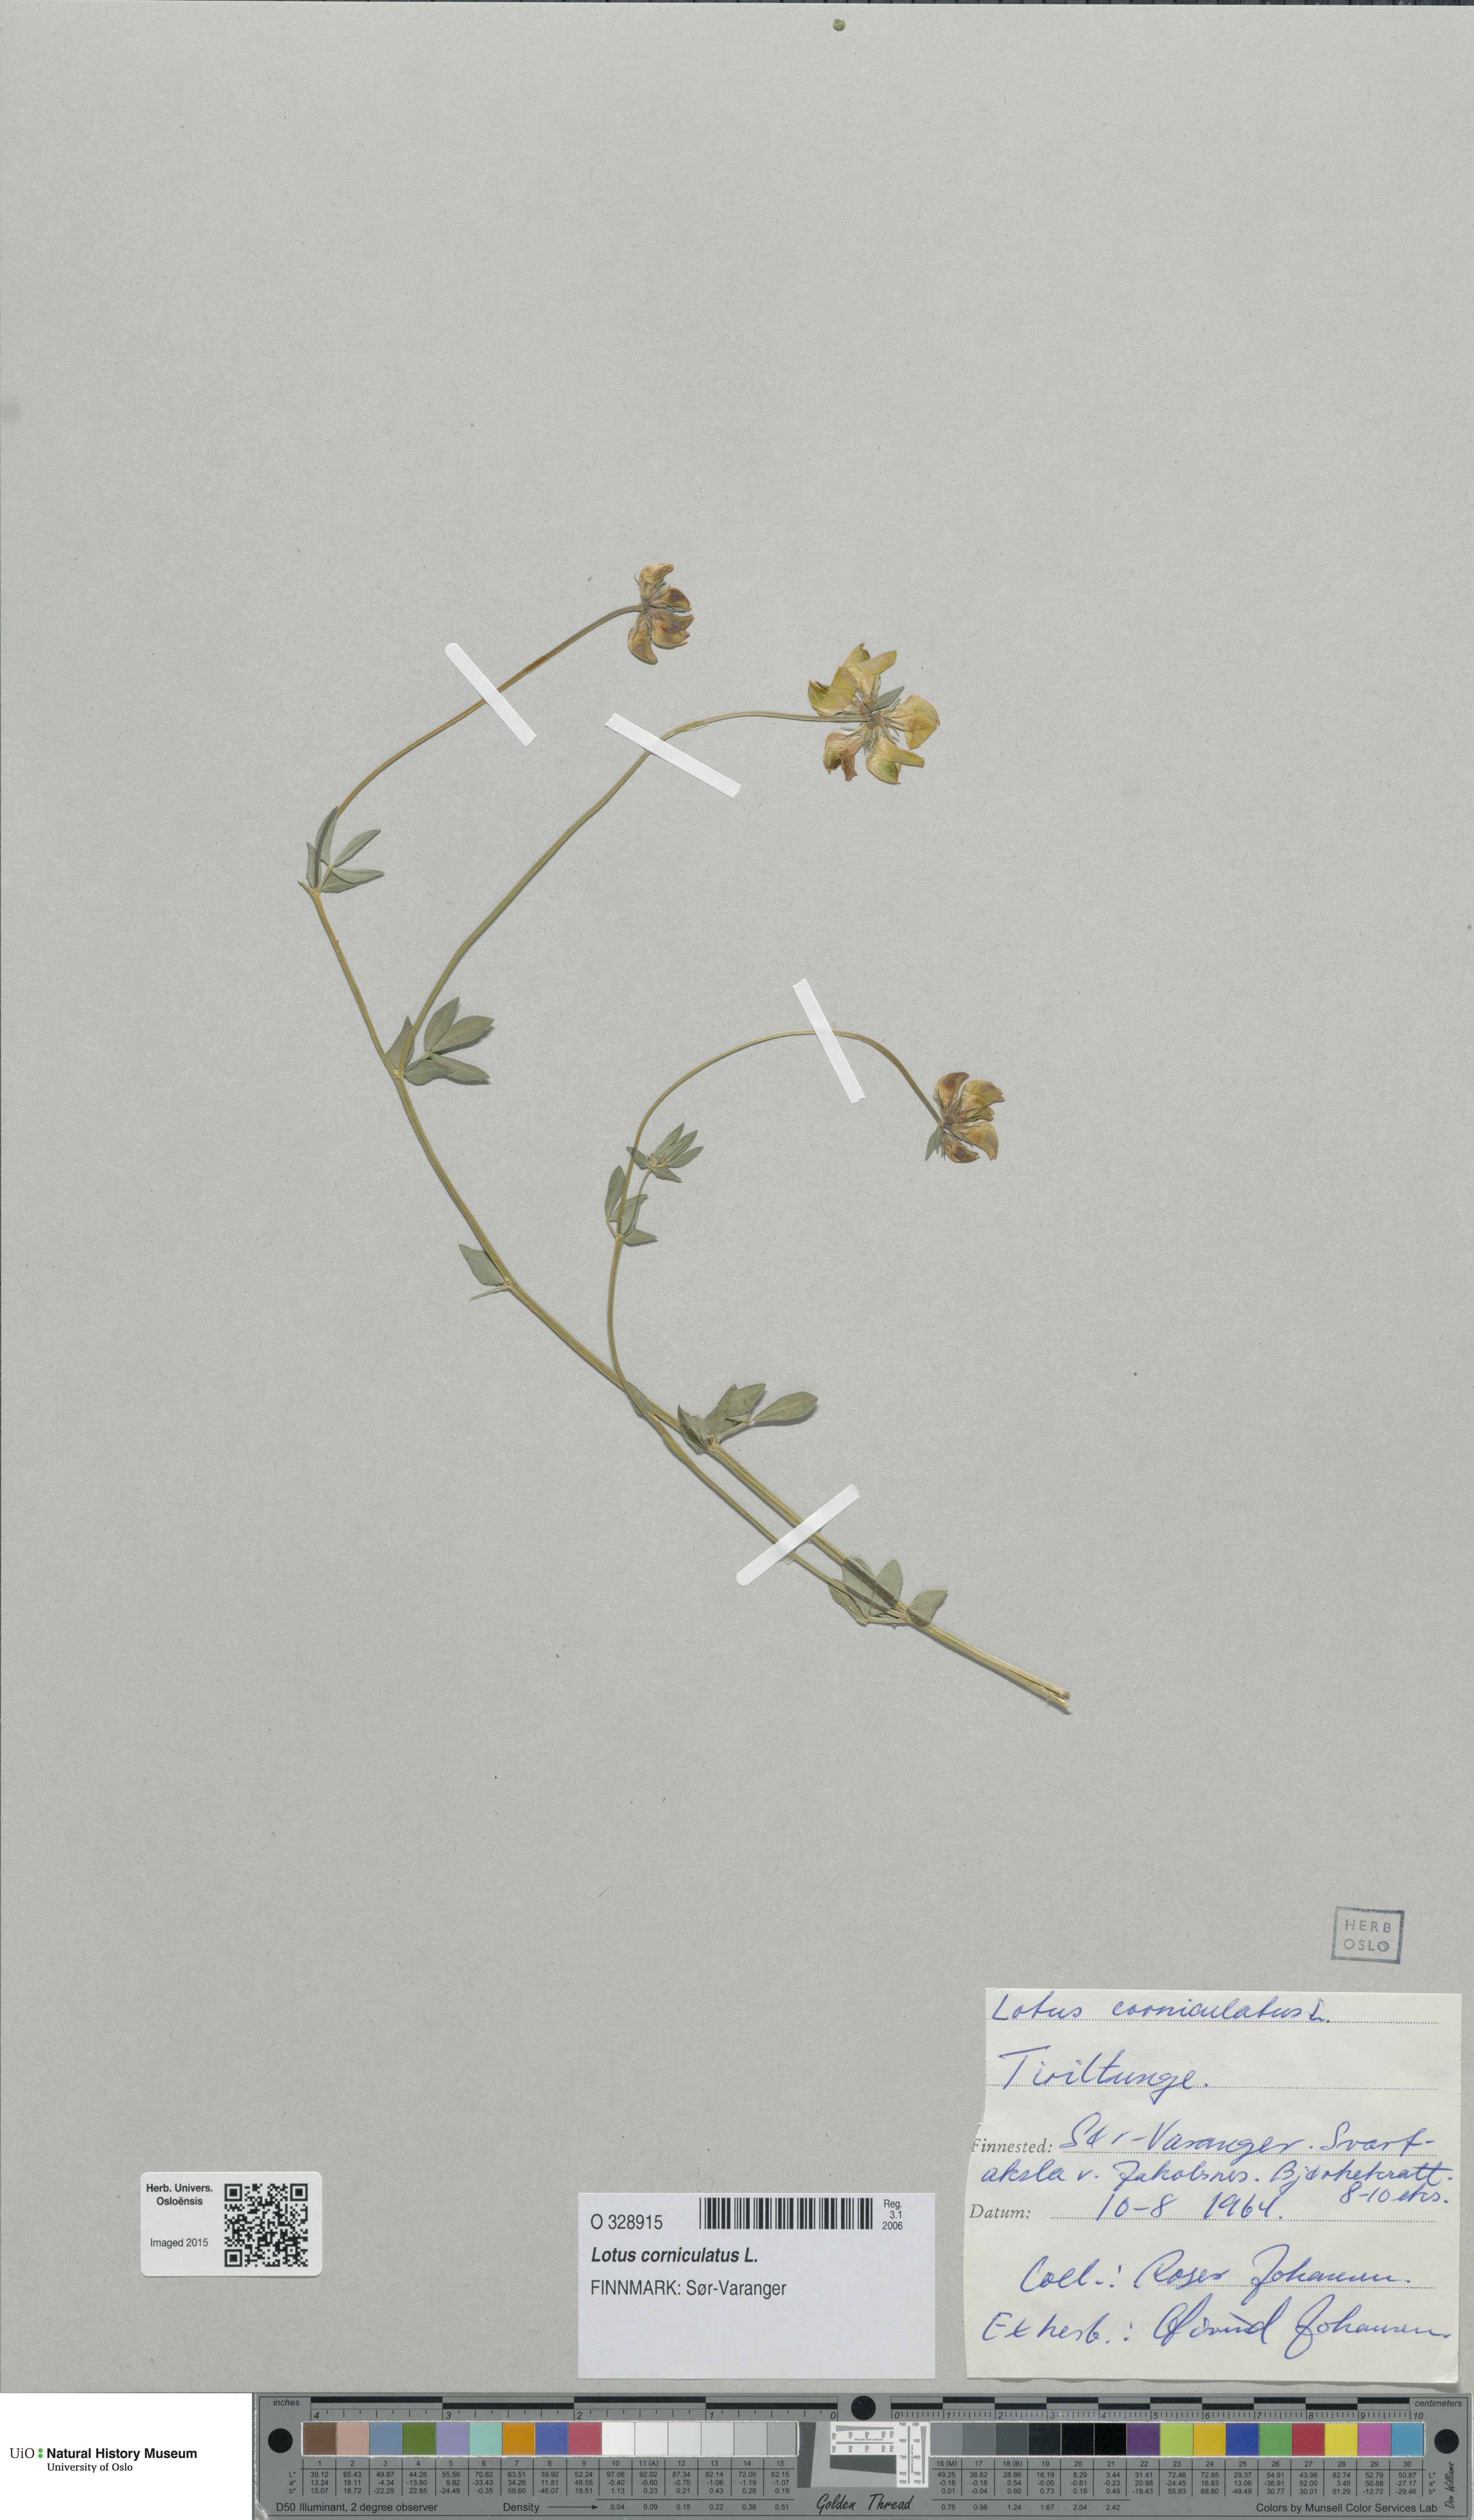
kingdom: Plantae
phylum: Tracheophyta
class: Magnoliopsida
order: Fabales
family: Fabaceae
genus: Lotus
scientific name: Lotus corniculatus
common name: Common bird's-foot-trefoil
